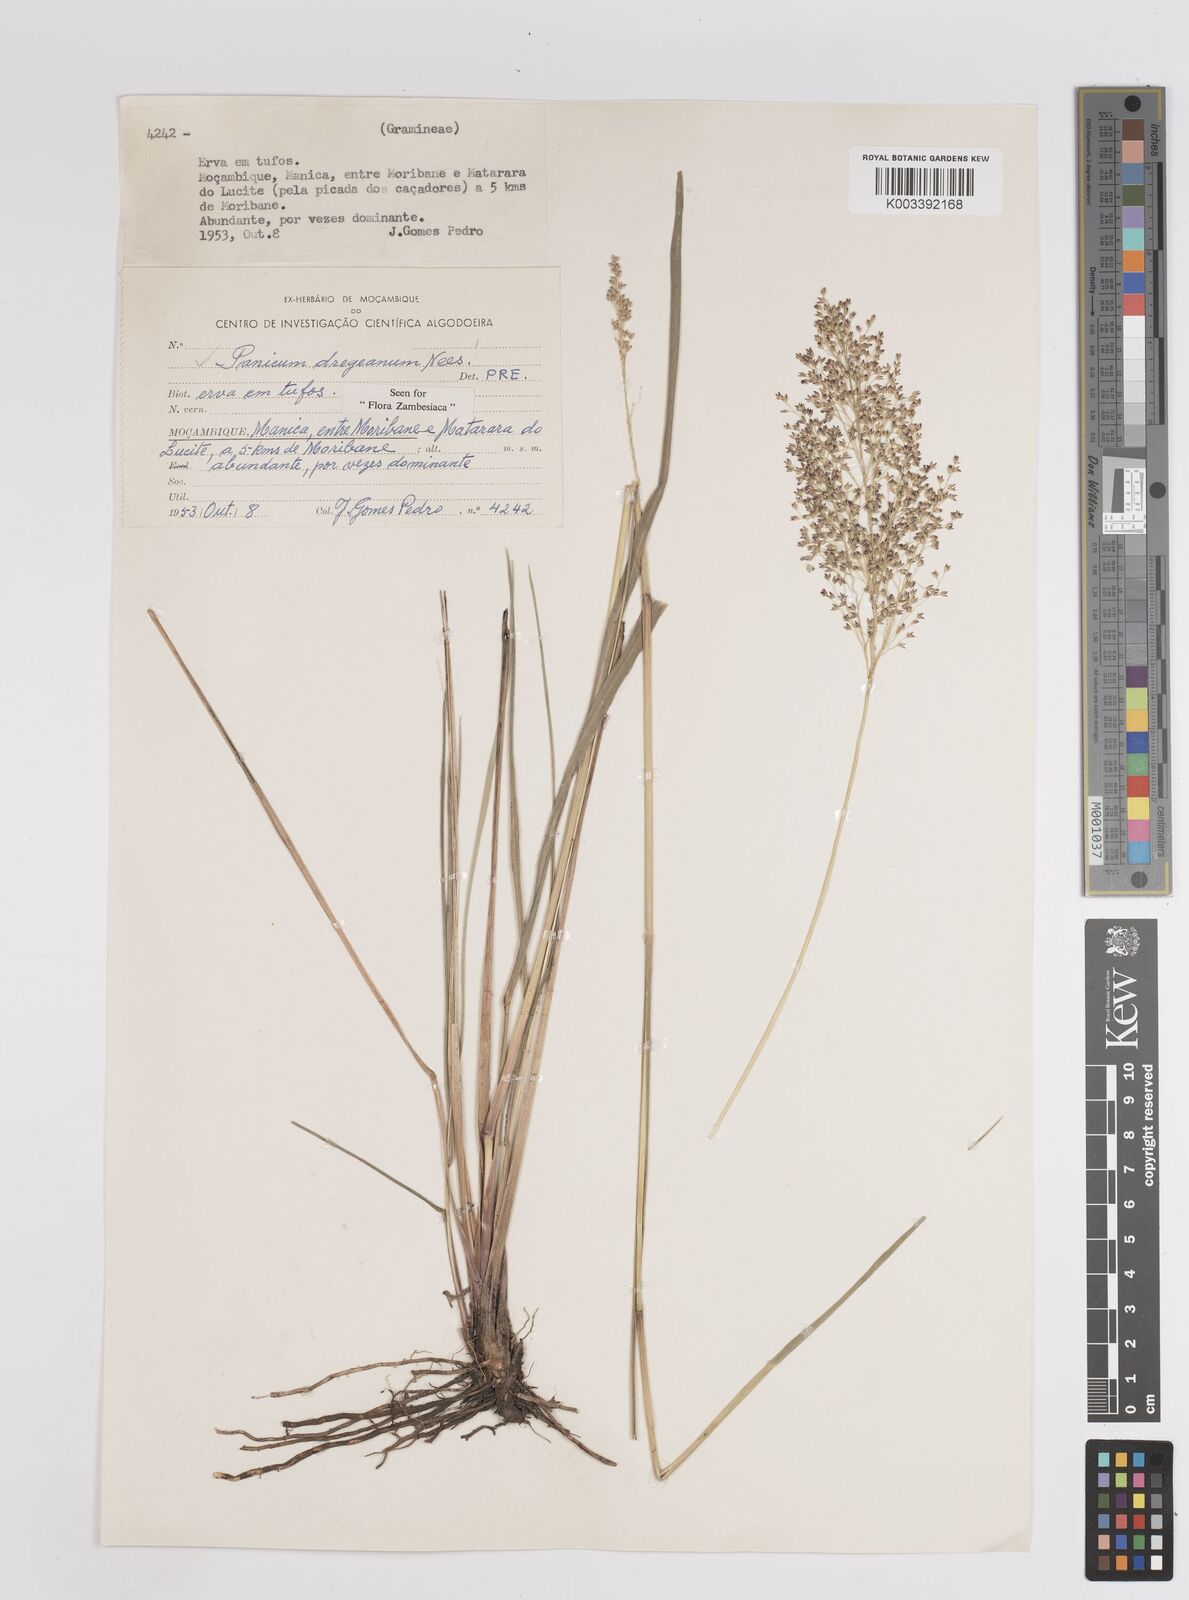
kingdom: Plantae
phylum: Tracheophyta
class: Liliopsida
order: Poales
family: Poaceae
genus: Panicum
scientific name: Panicum dregeanum
